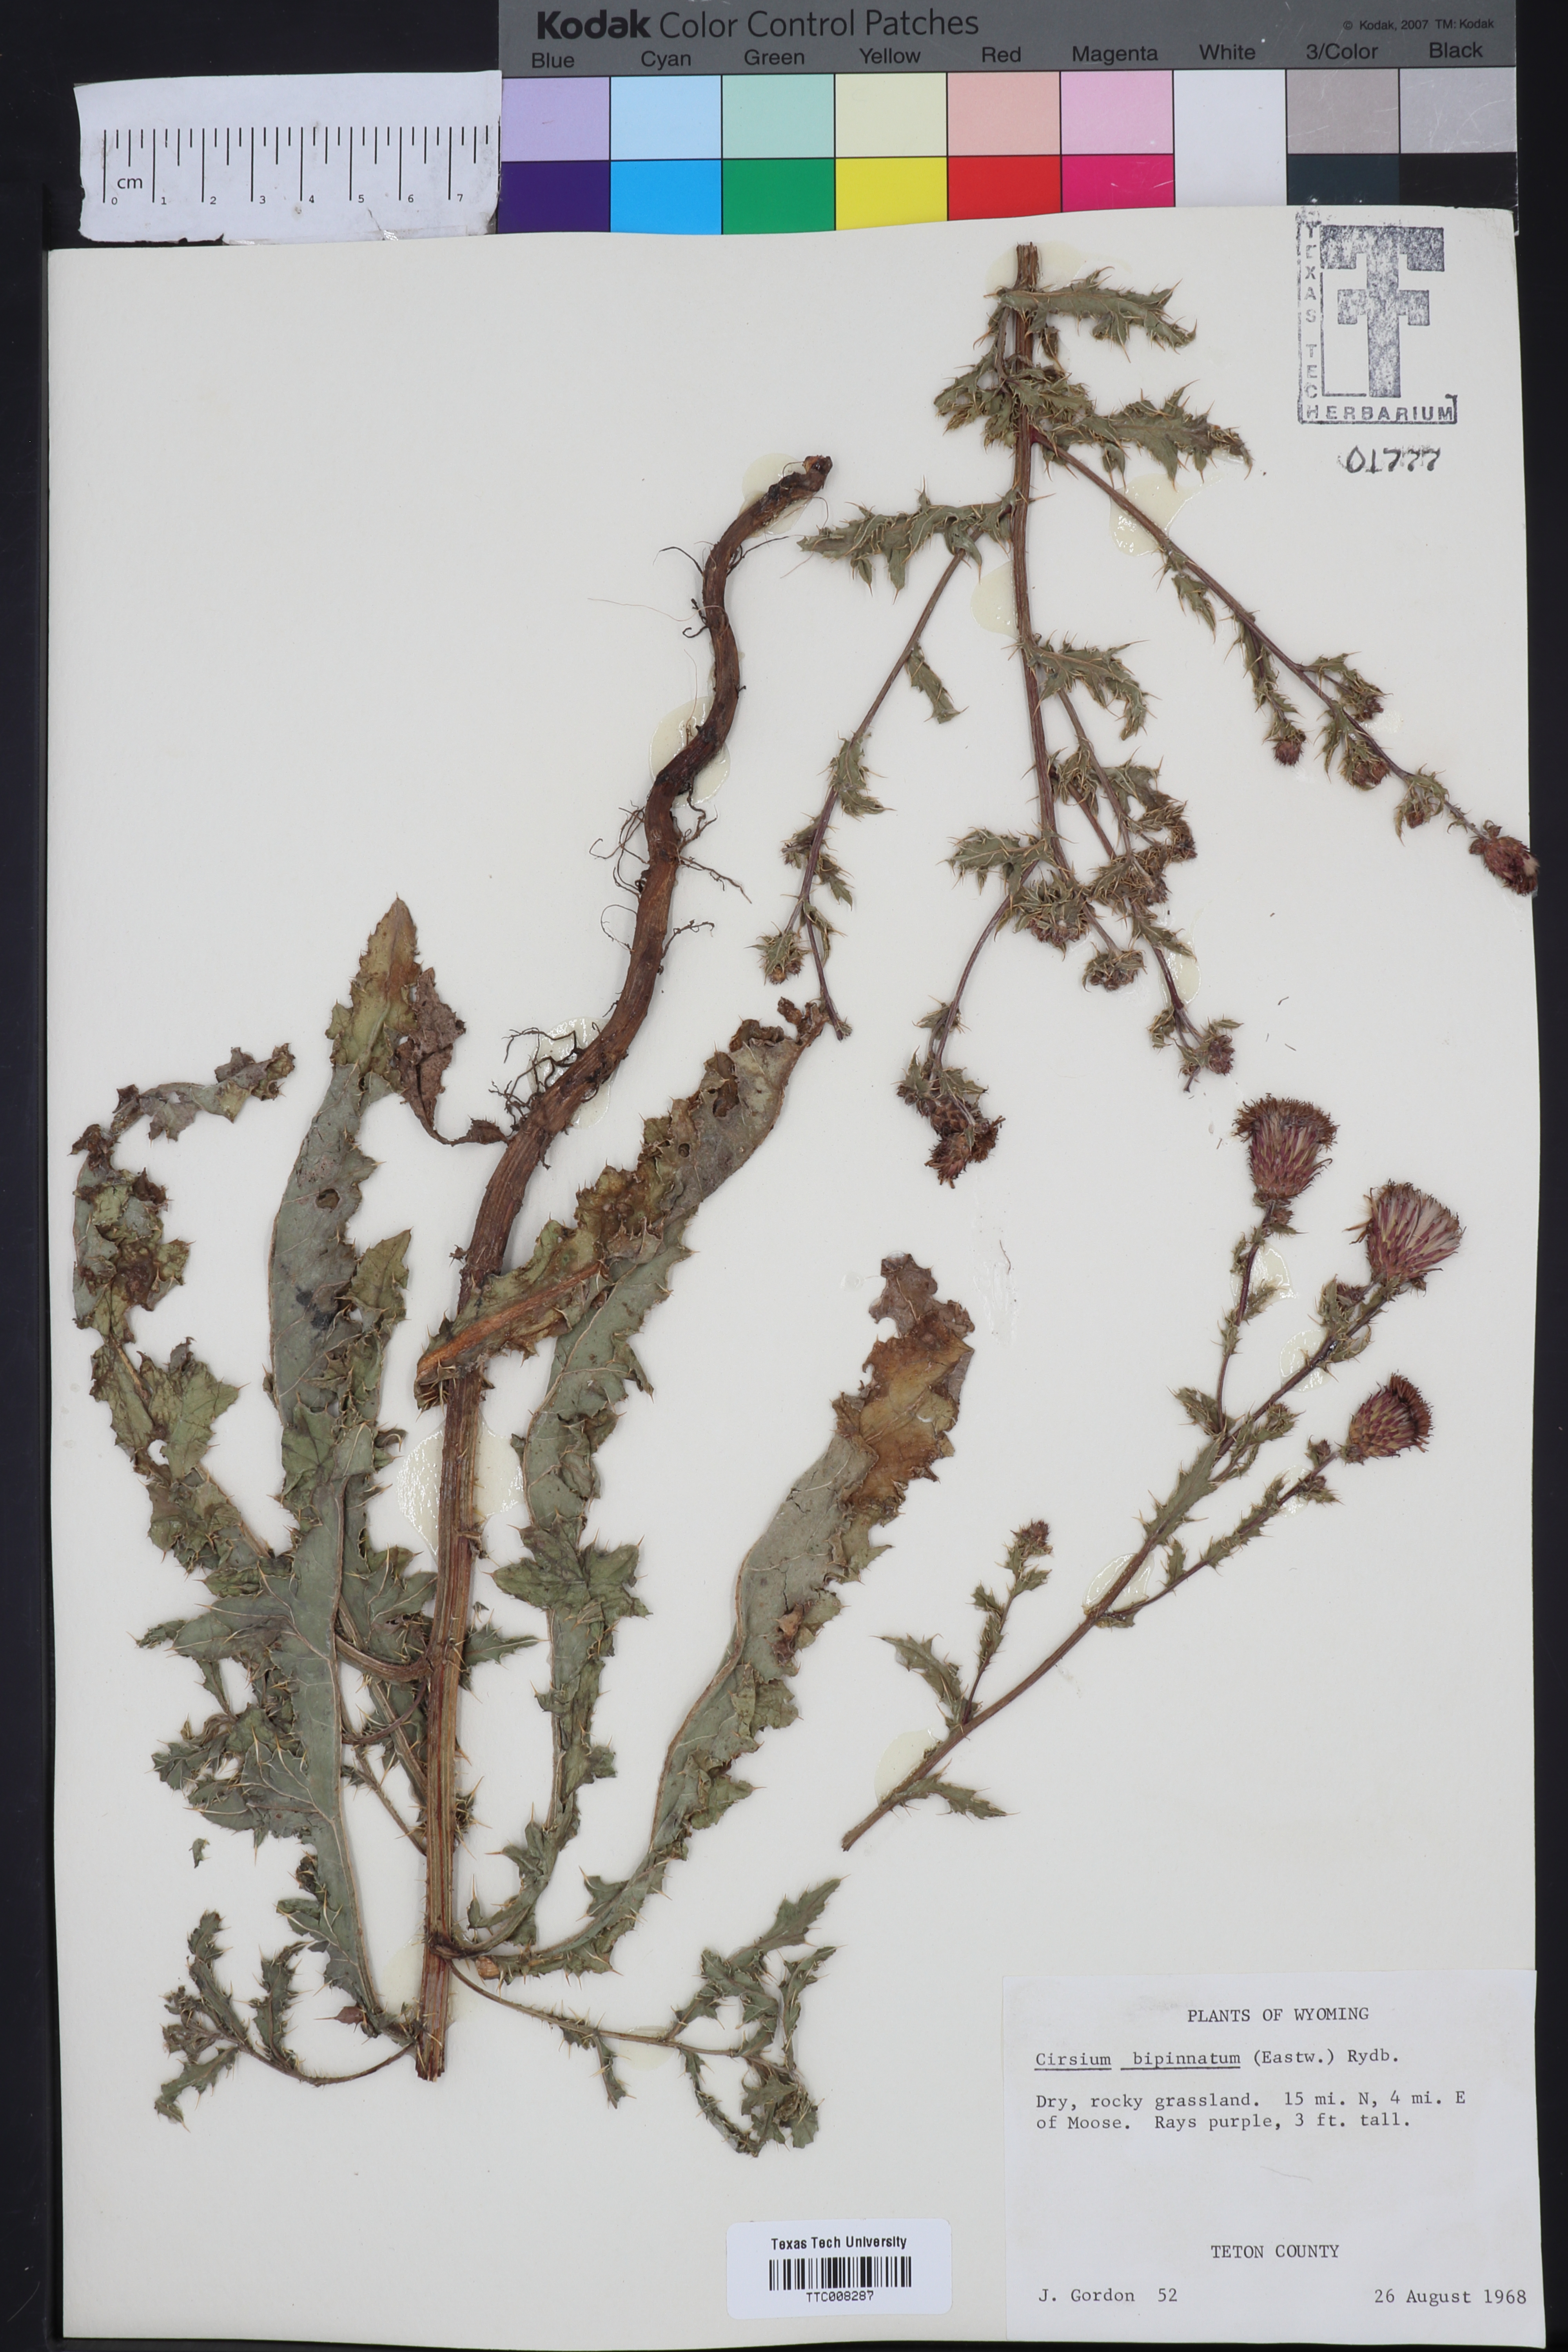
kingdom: Plantae
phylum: Tracheophyta
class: Magnoliopsida
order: Asterales
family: Asteraceae
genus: Cirsium
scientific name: Cirsium pulchellum
